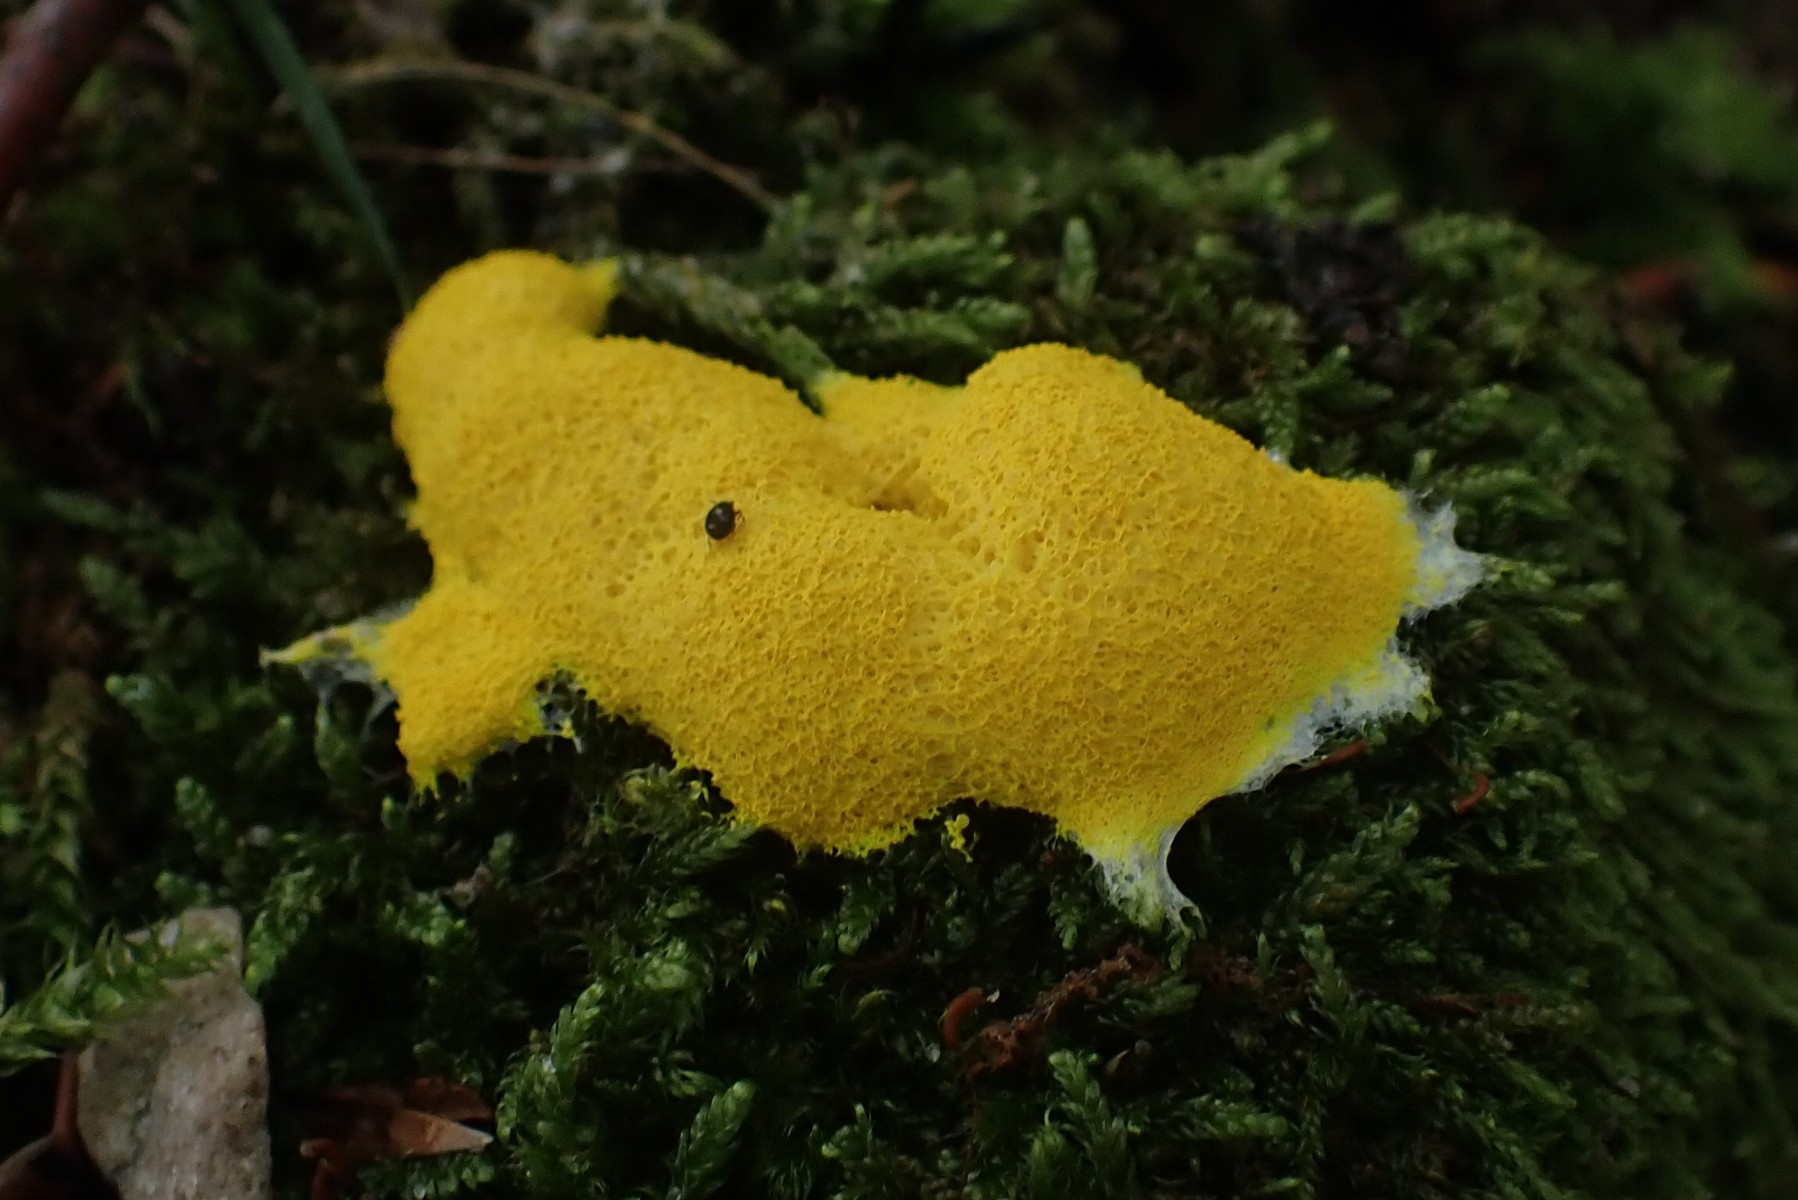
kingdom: Protozoa
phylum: Mycetozoa
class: Myxomycetes
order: Physarales
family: Physaraceae
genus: Fuligo
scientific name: Fuligo septica
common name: gul troldsmør
